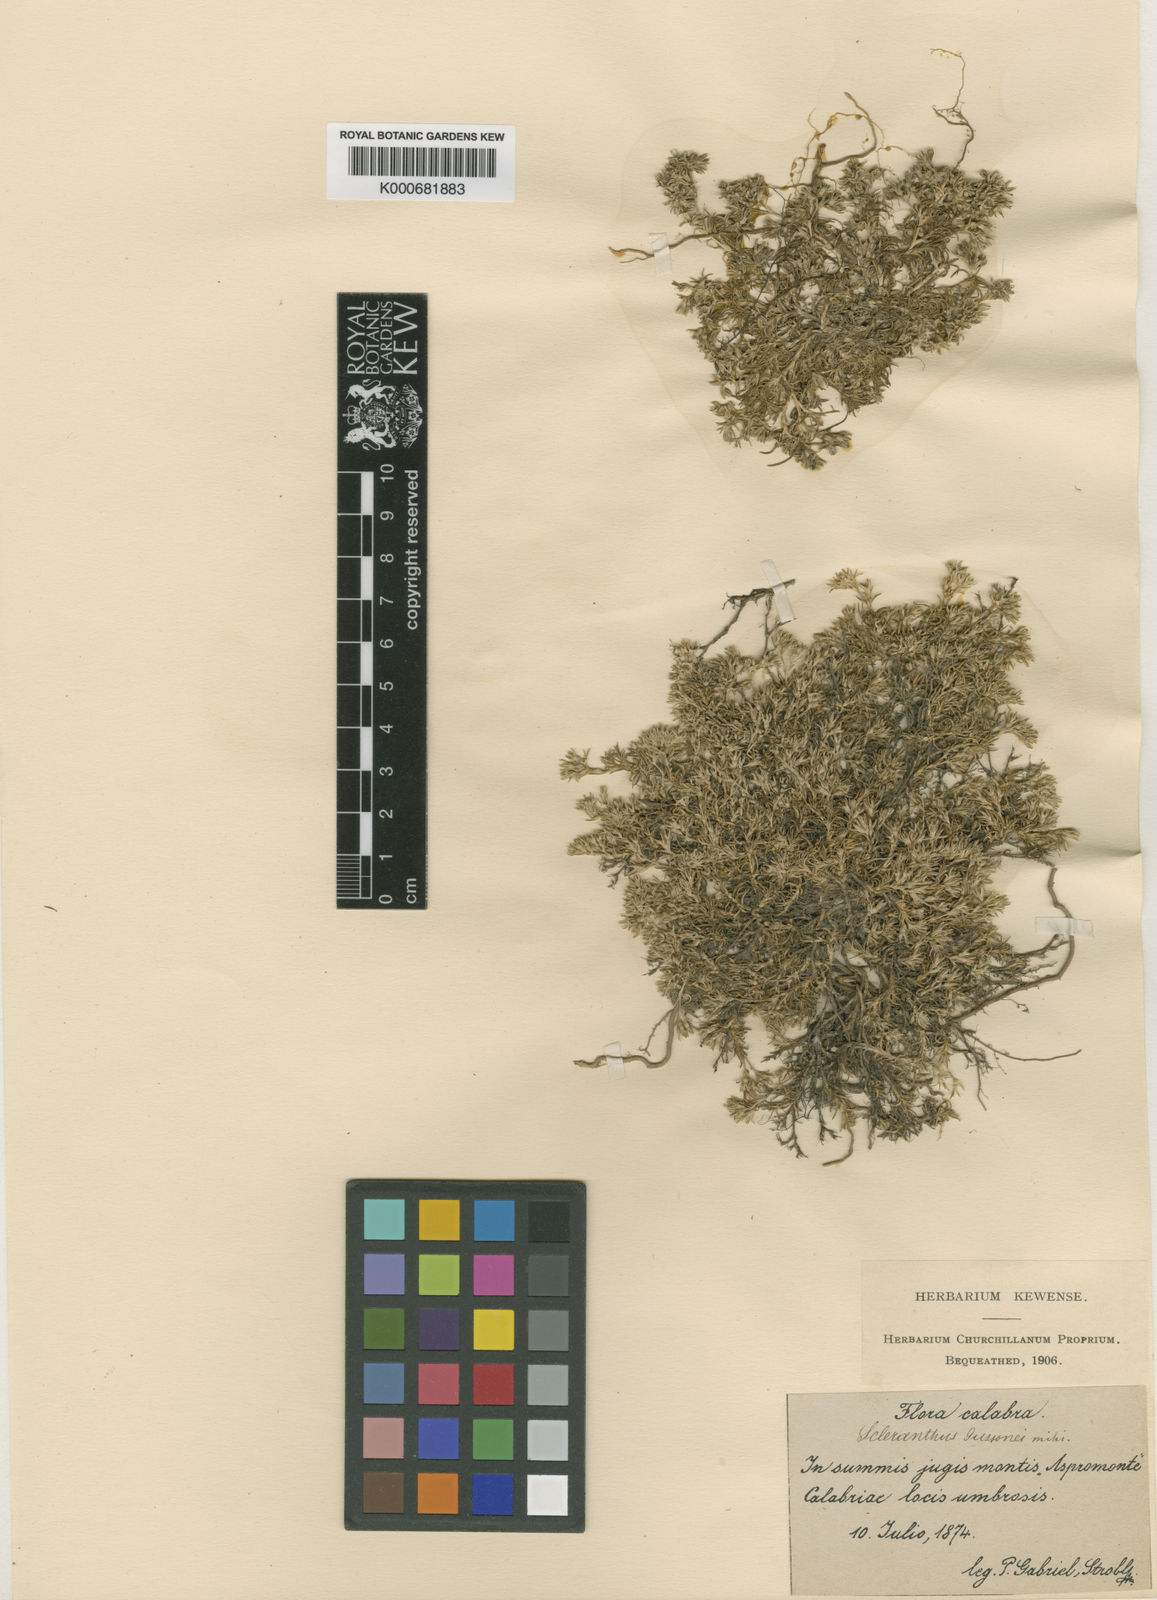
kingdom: Plantae
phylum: Tracheophyta
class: Magnoliopsida
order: Caryophyllales
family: Caryophyllaceae
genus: Scleranthus
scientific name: Scleranthus perennis
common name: Perennial knawel
